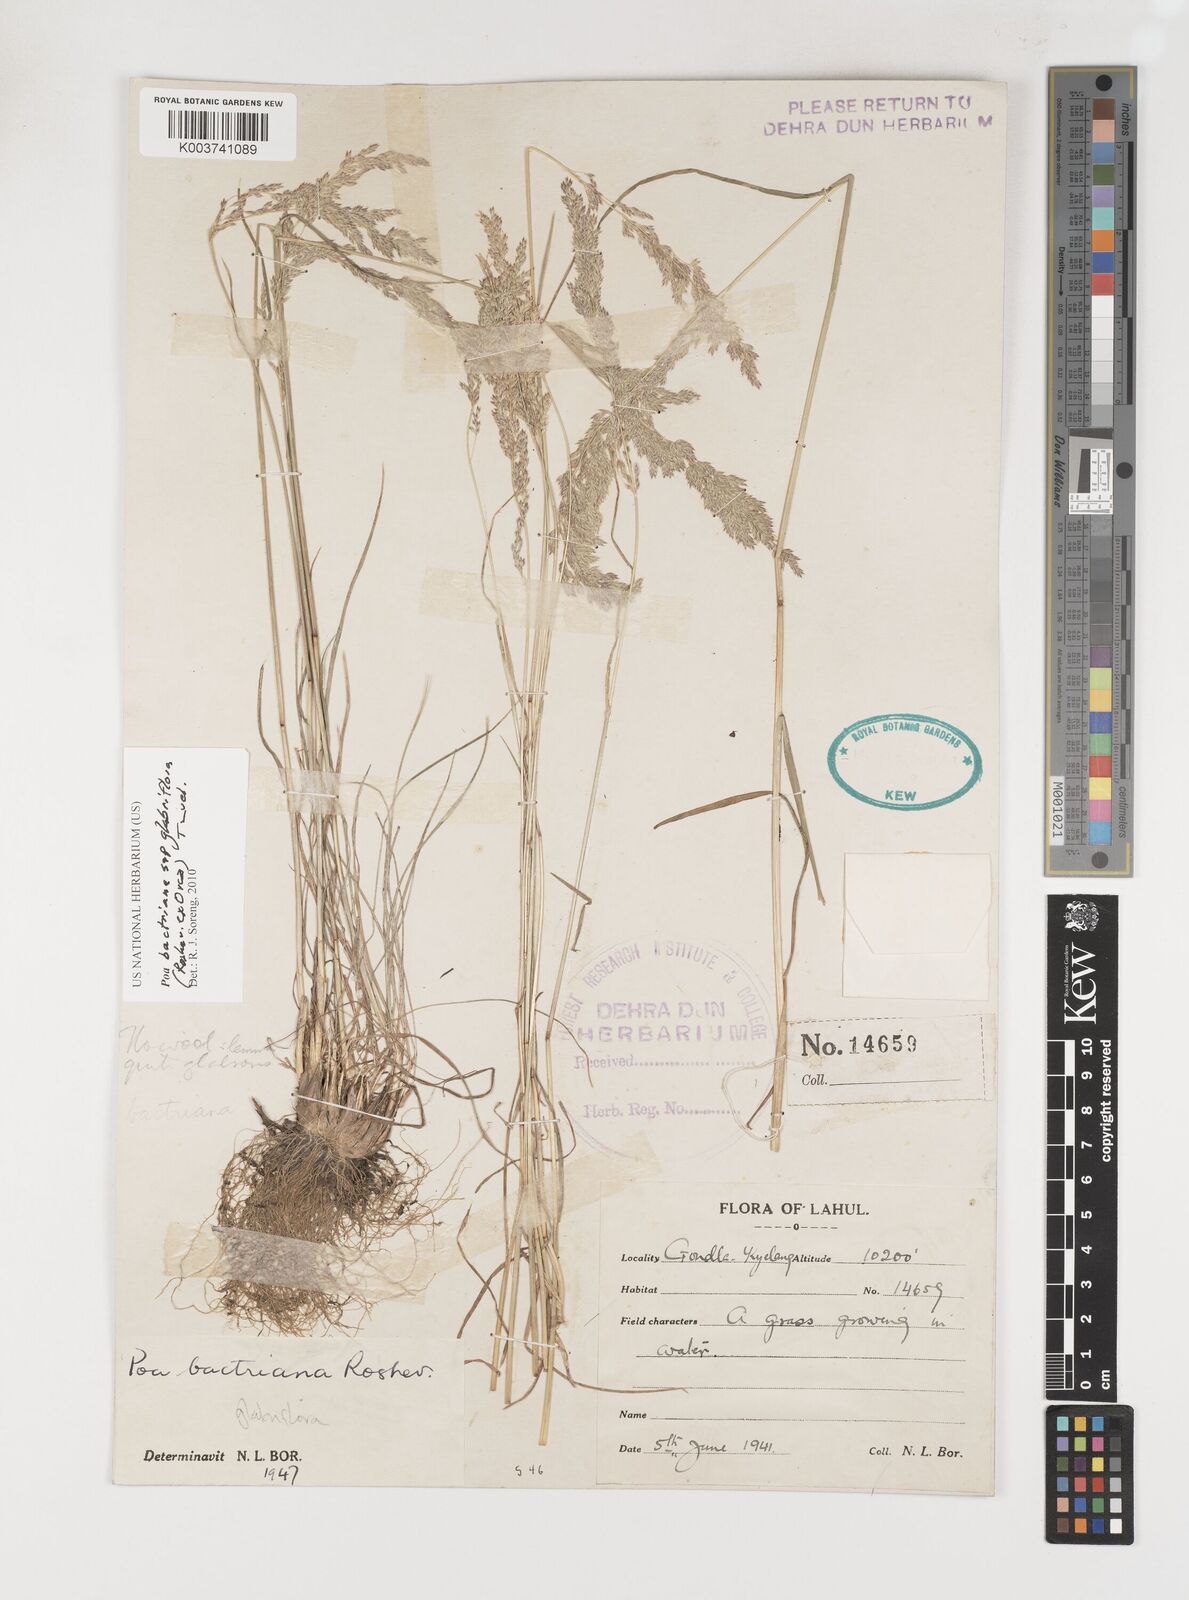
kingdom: Plantae
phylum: Tracheophyta
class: Liliopsida
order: Poales
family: Poaceae
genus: Poa
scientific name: Poa bactriana
